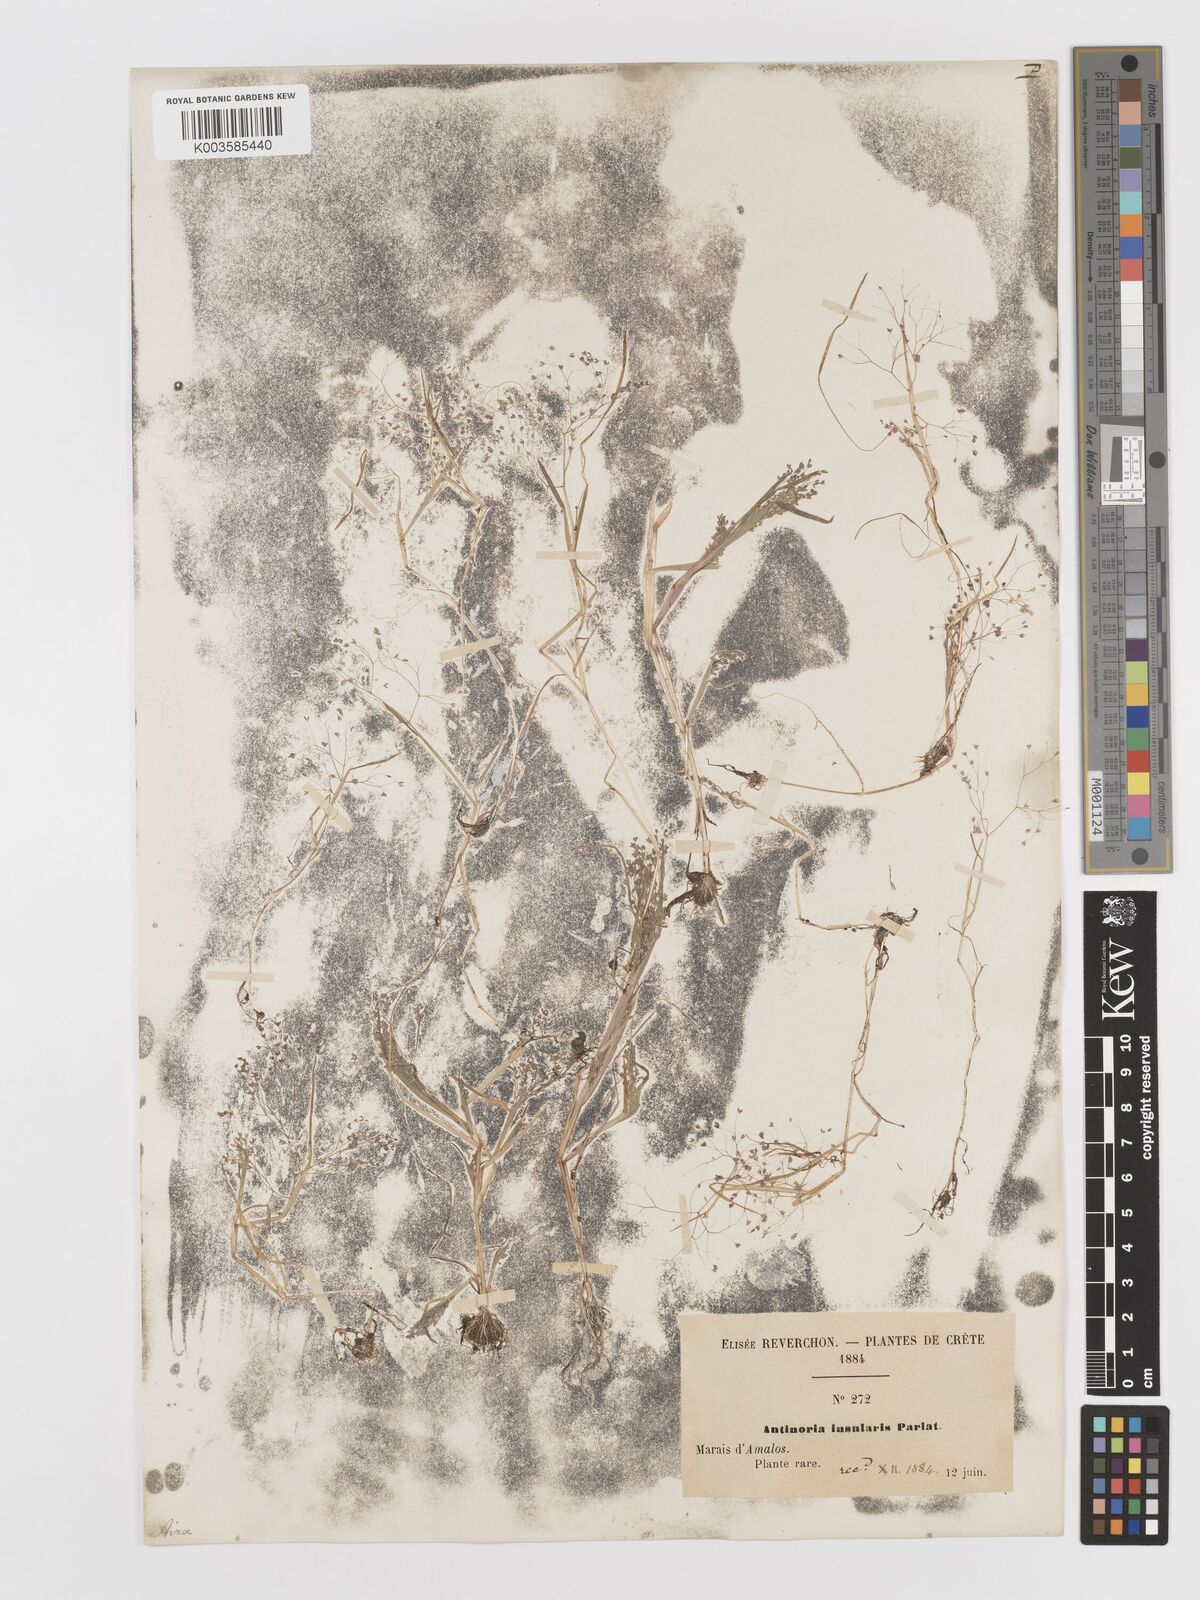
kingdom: Plantae
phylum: Tracheophyta
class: Liliopsida
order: Poales
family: Poaceae
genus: Antinoria
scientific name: Antinoria insularis
